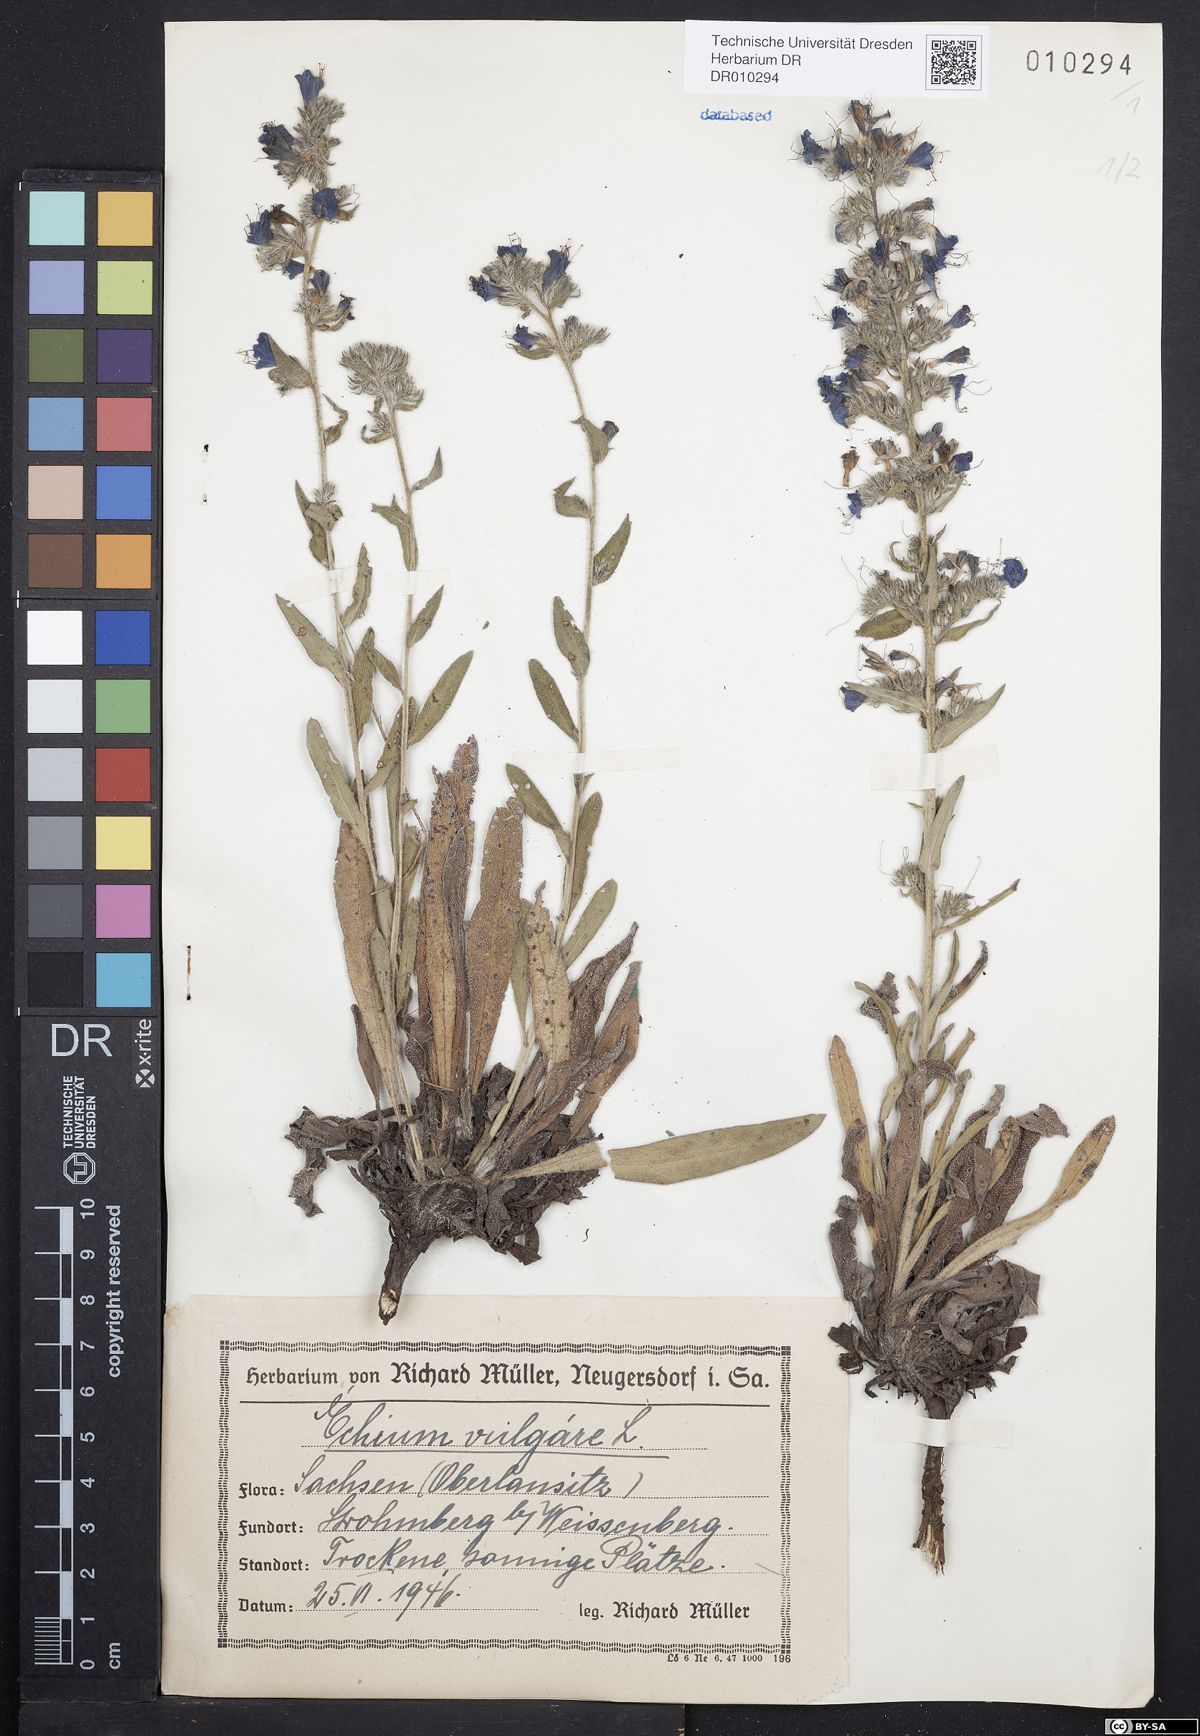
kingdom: Plantae
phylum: Tracheophyta
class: Magnoliopsida
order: Boraginales
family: Boraginaceae
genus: Echium
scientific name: Echium vulgare
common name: Common viper's bugloss
